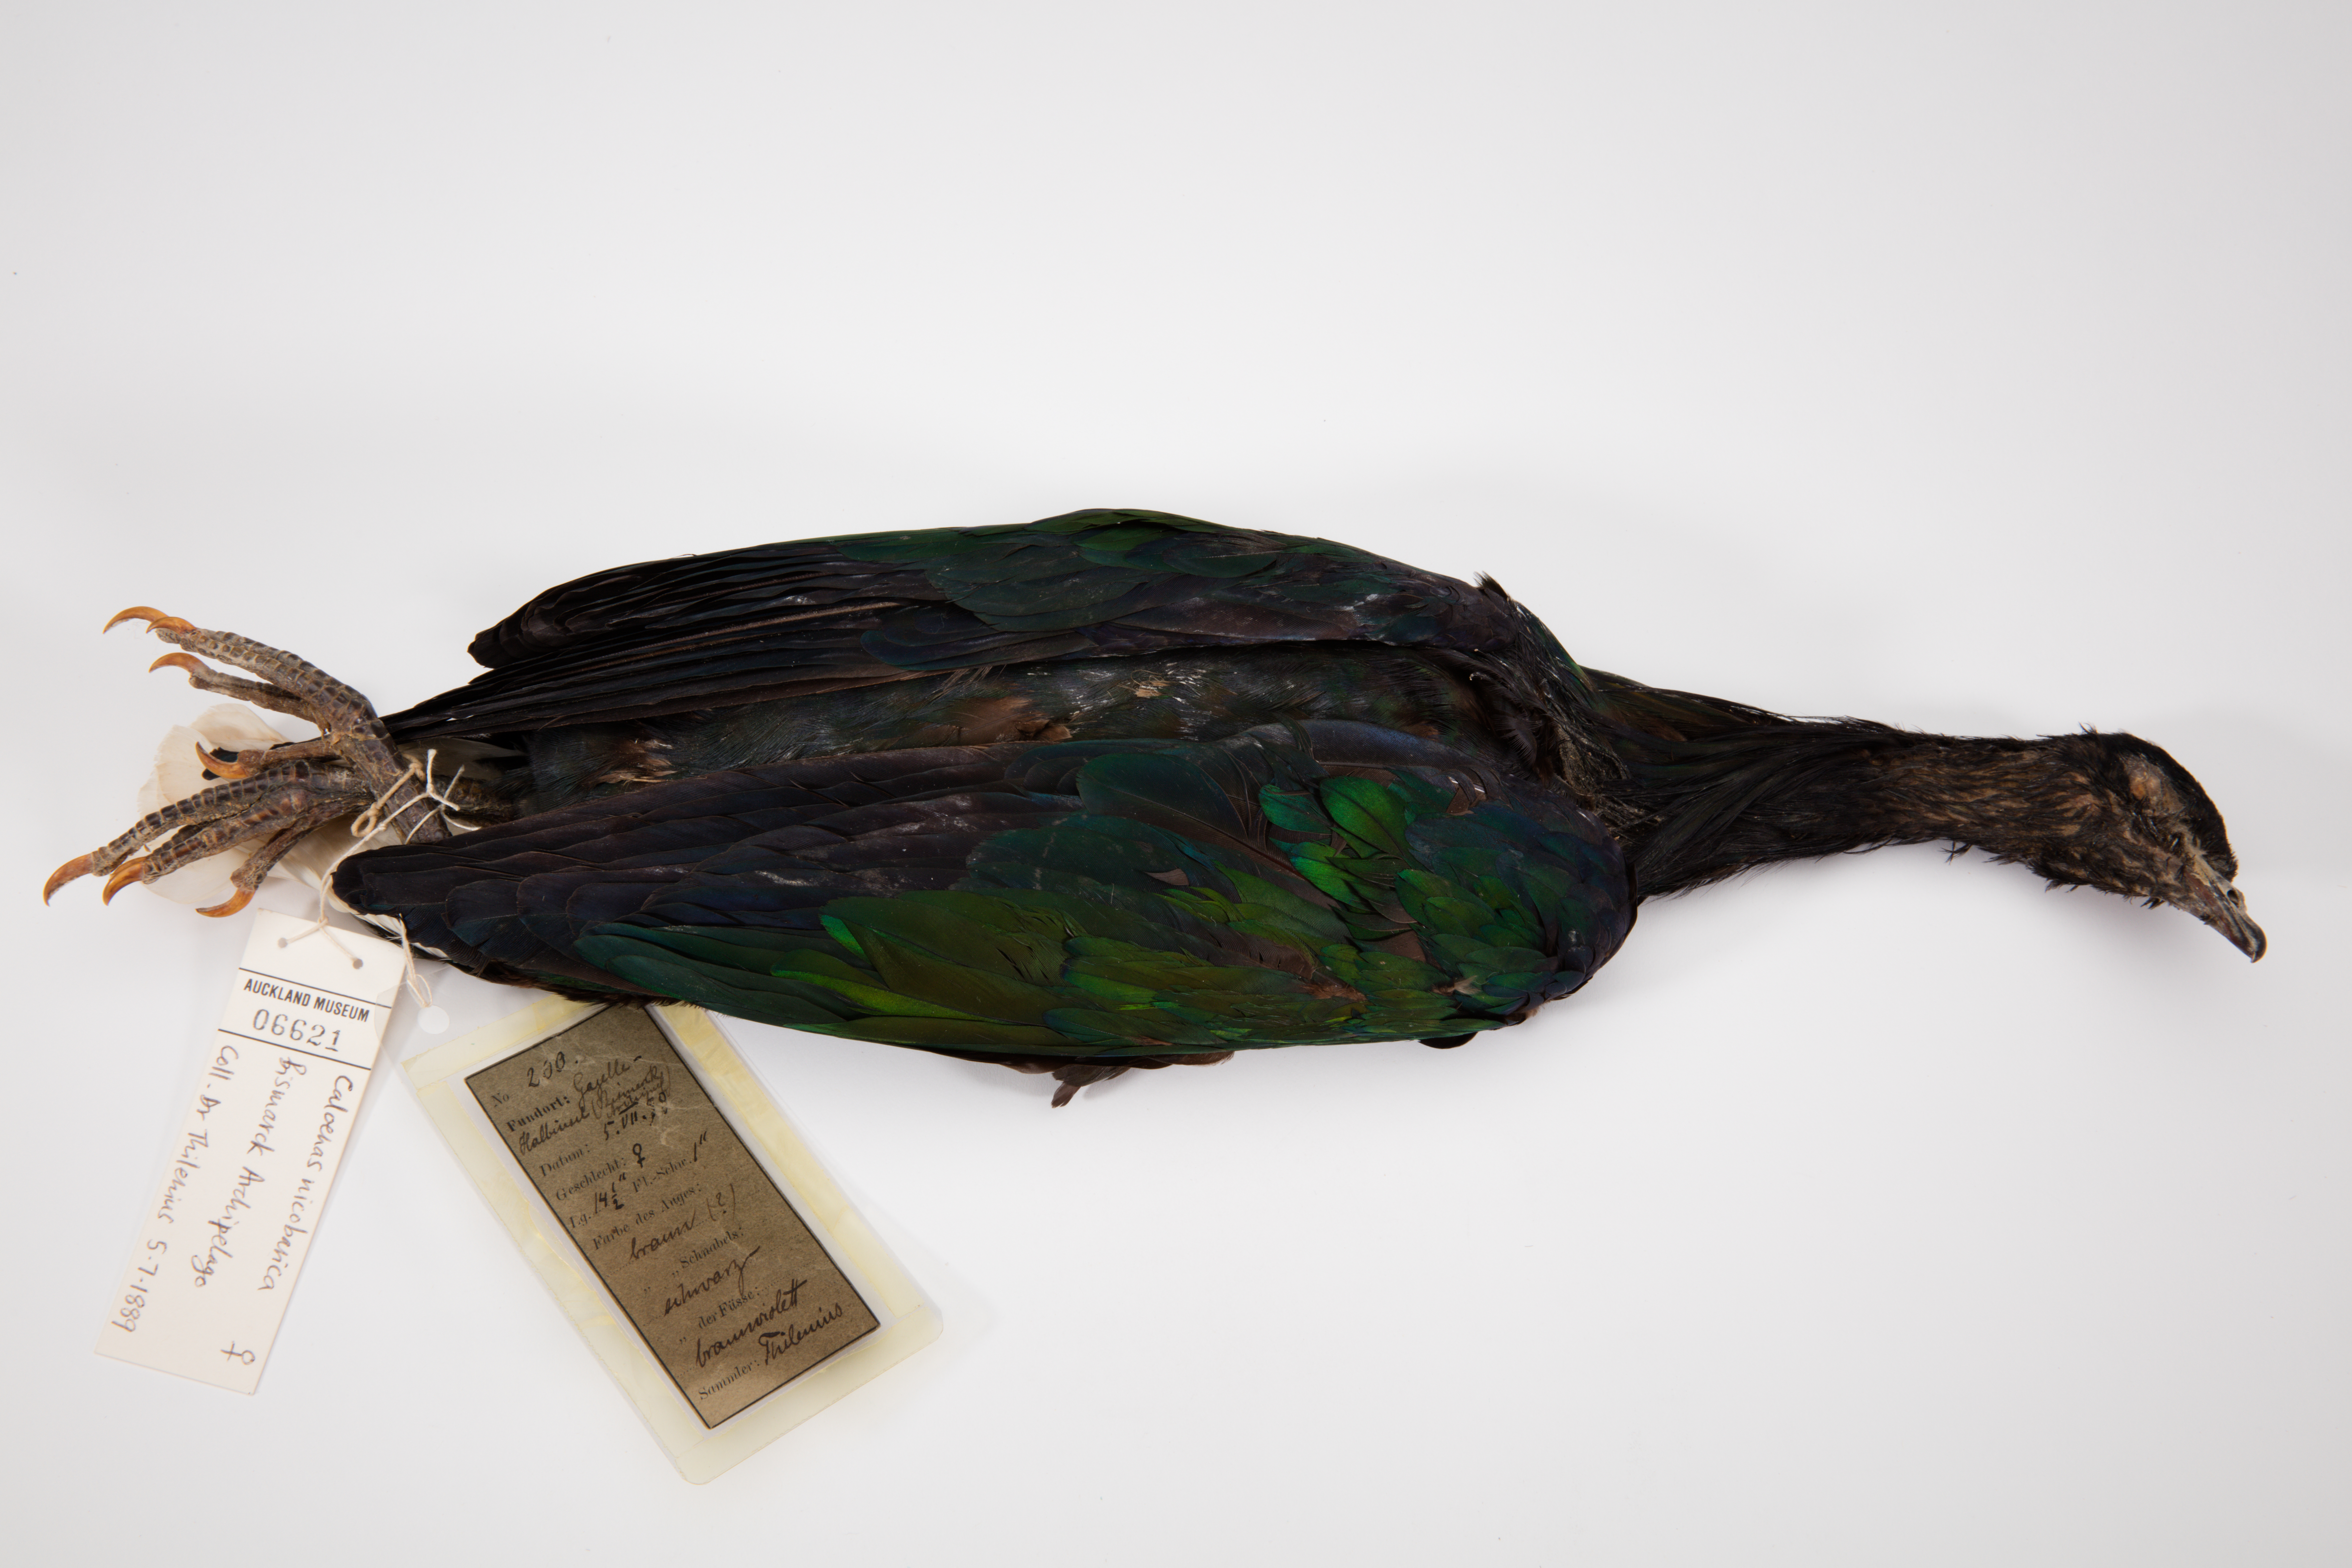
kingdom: Animalia
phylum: Chordata
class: Aves
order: Columbiformes
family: Columbidae
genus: Caloenas
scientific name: Caloenas nicobarica
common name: Nicobar pigeon
